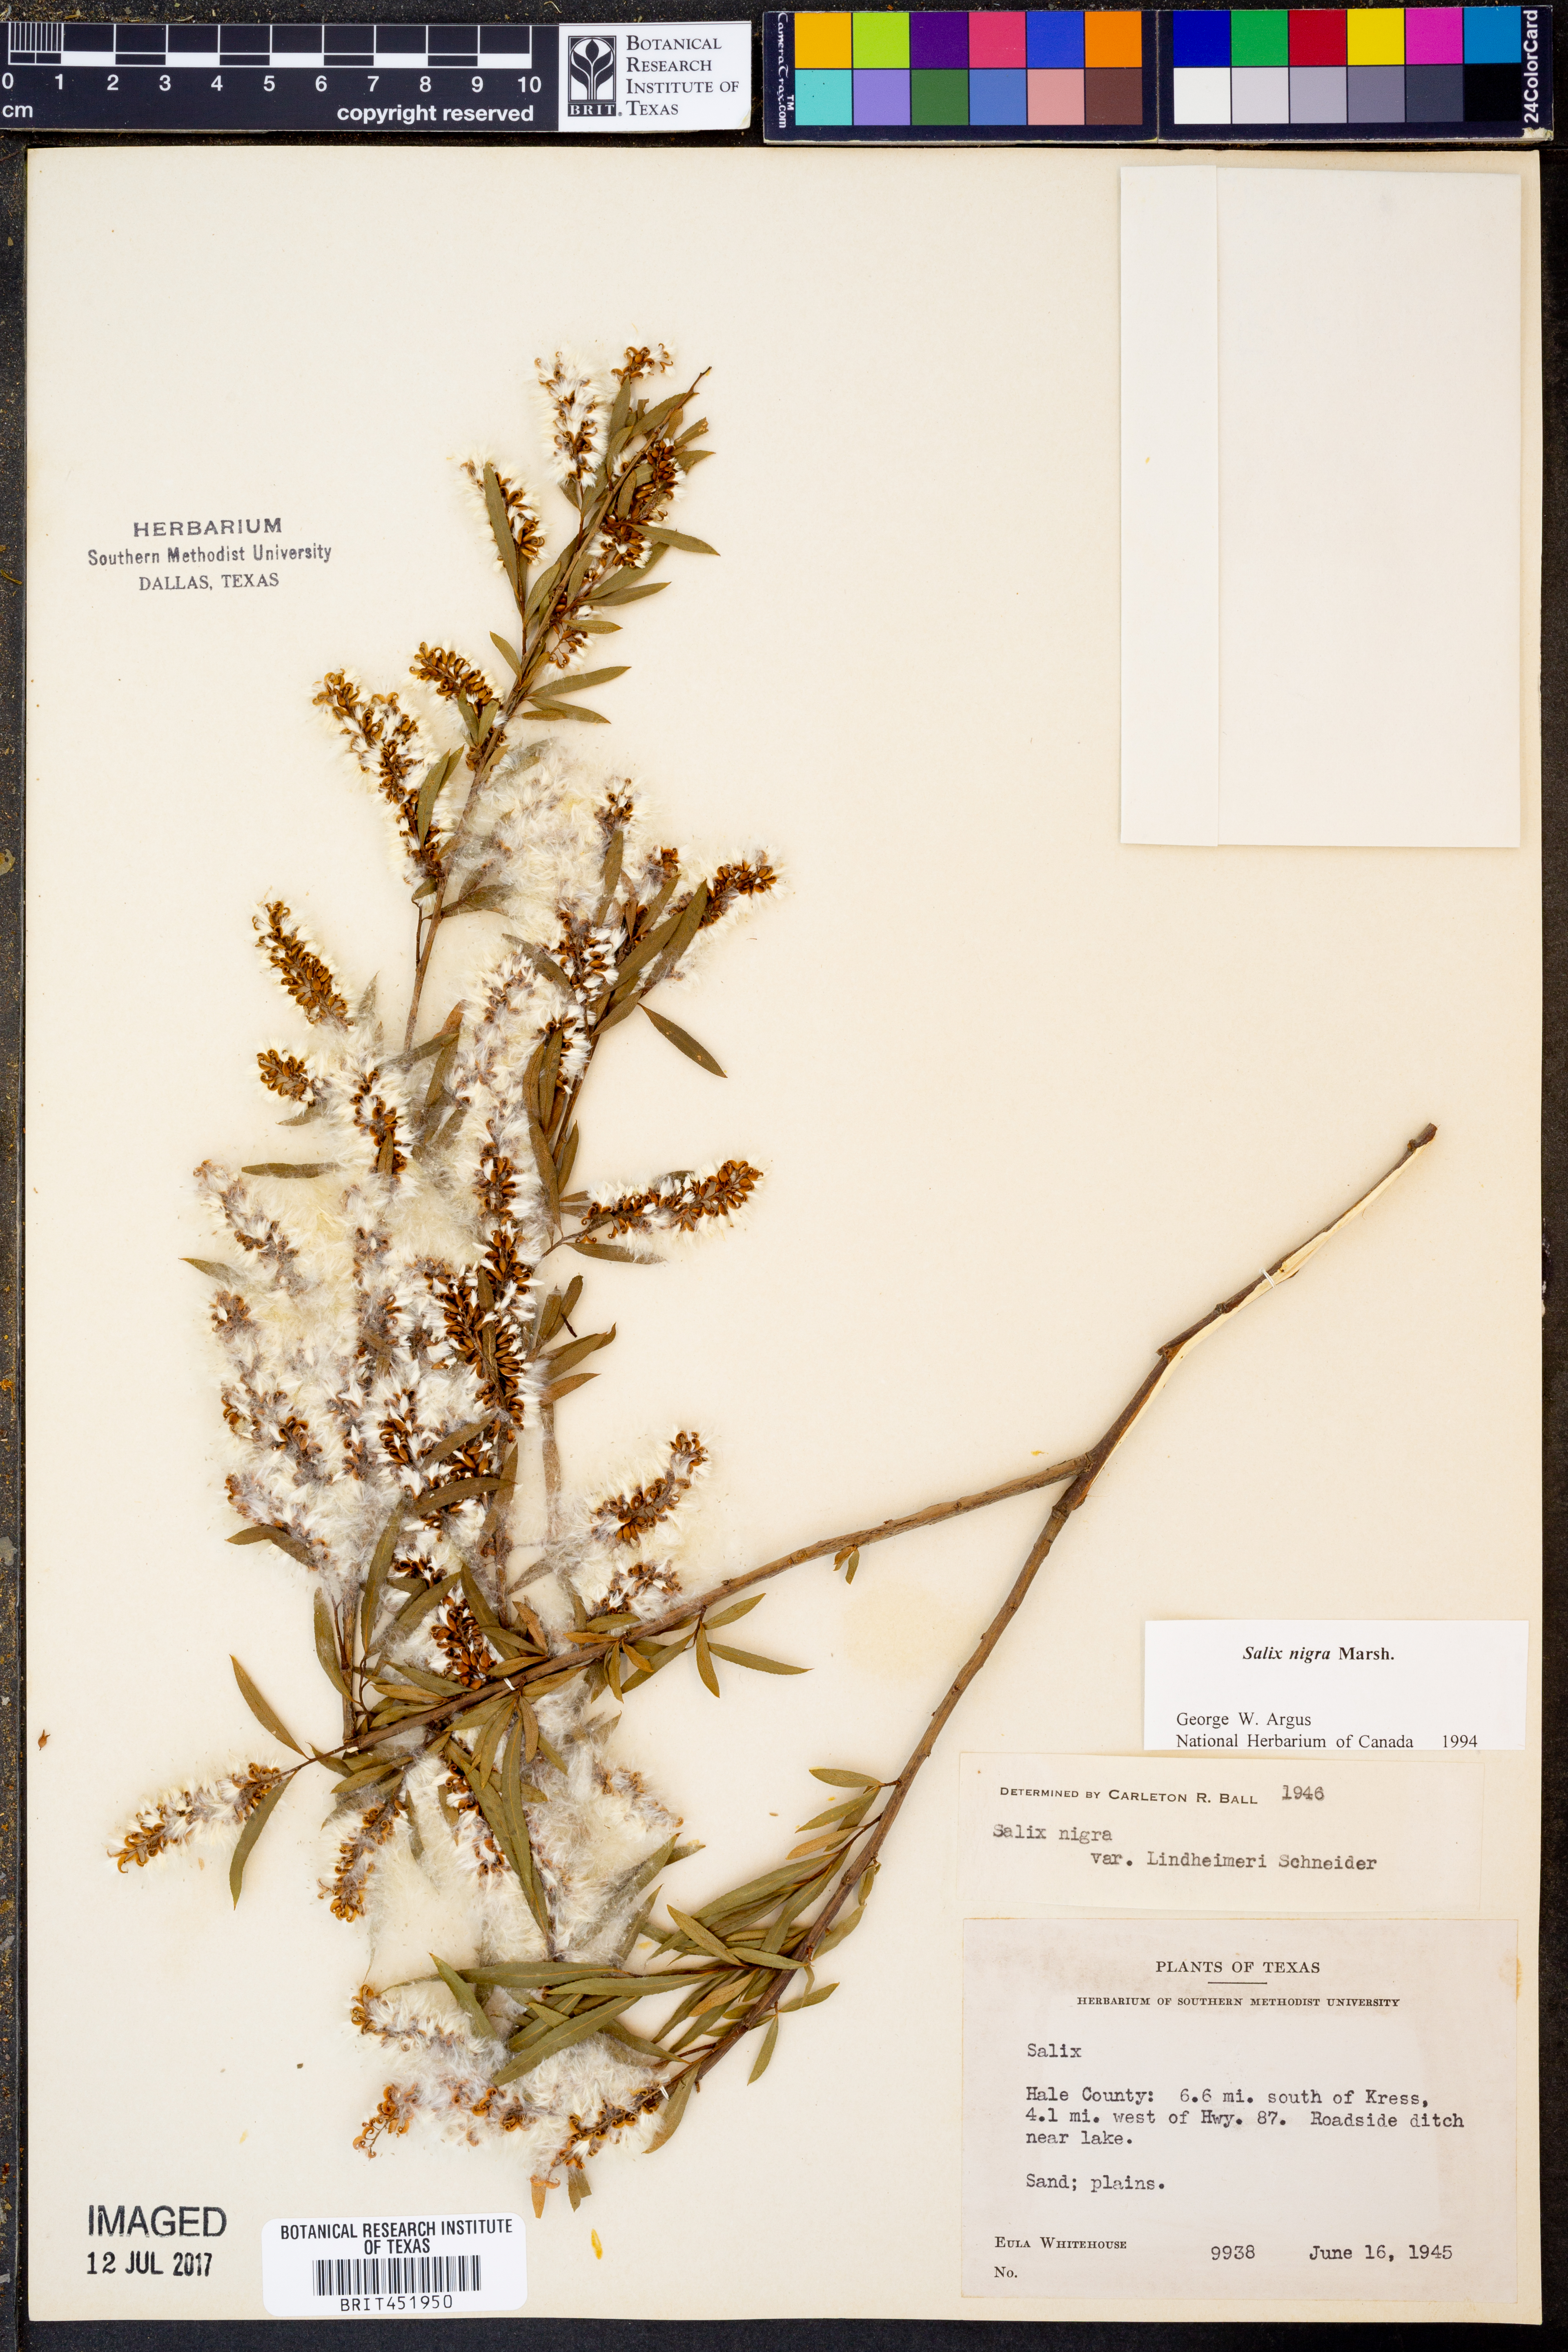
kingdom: Plantae
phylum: Tracheophyta
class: Magnoliopsida
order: Malpighiales
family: Salicaceae
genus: Salix
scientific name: Salix nigra
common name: Black willow
